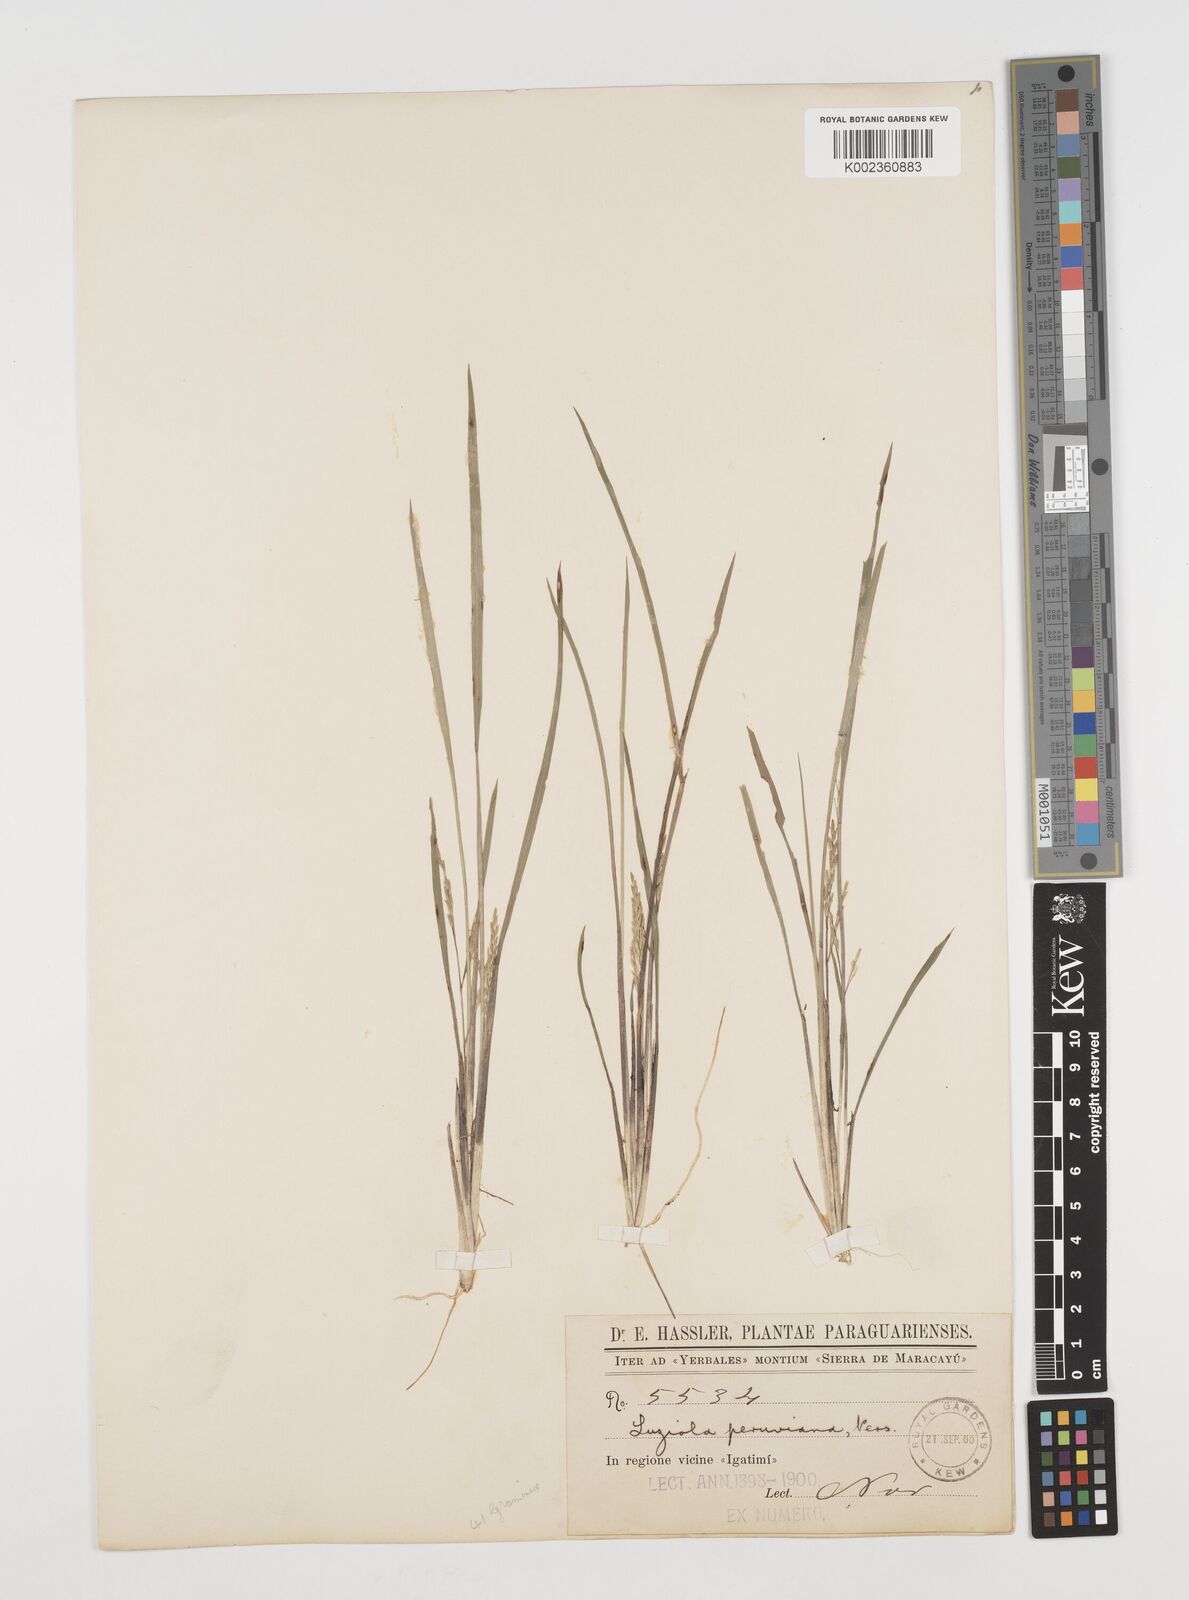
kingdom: Plantae
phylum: Tracheophyta
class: Liliopsida
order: Poales
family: Poaceae
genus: Luziola
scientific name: Luziola bahiensis
